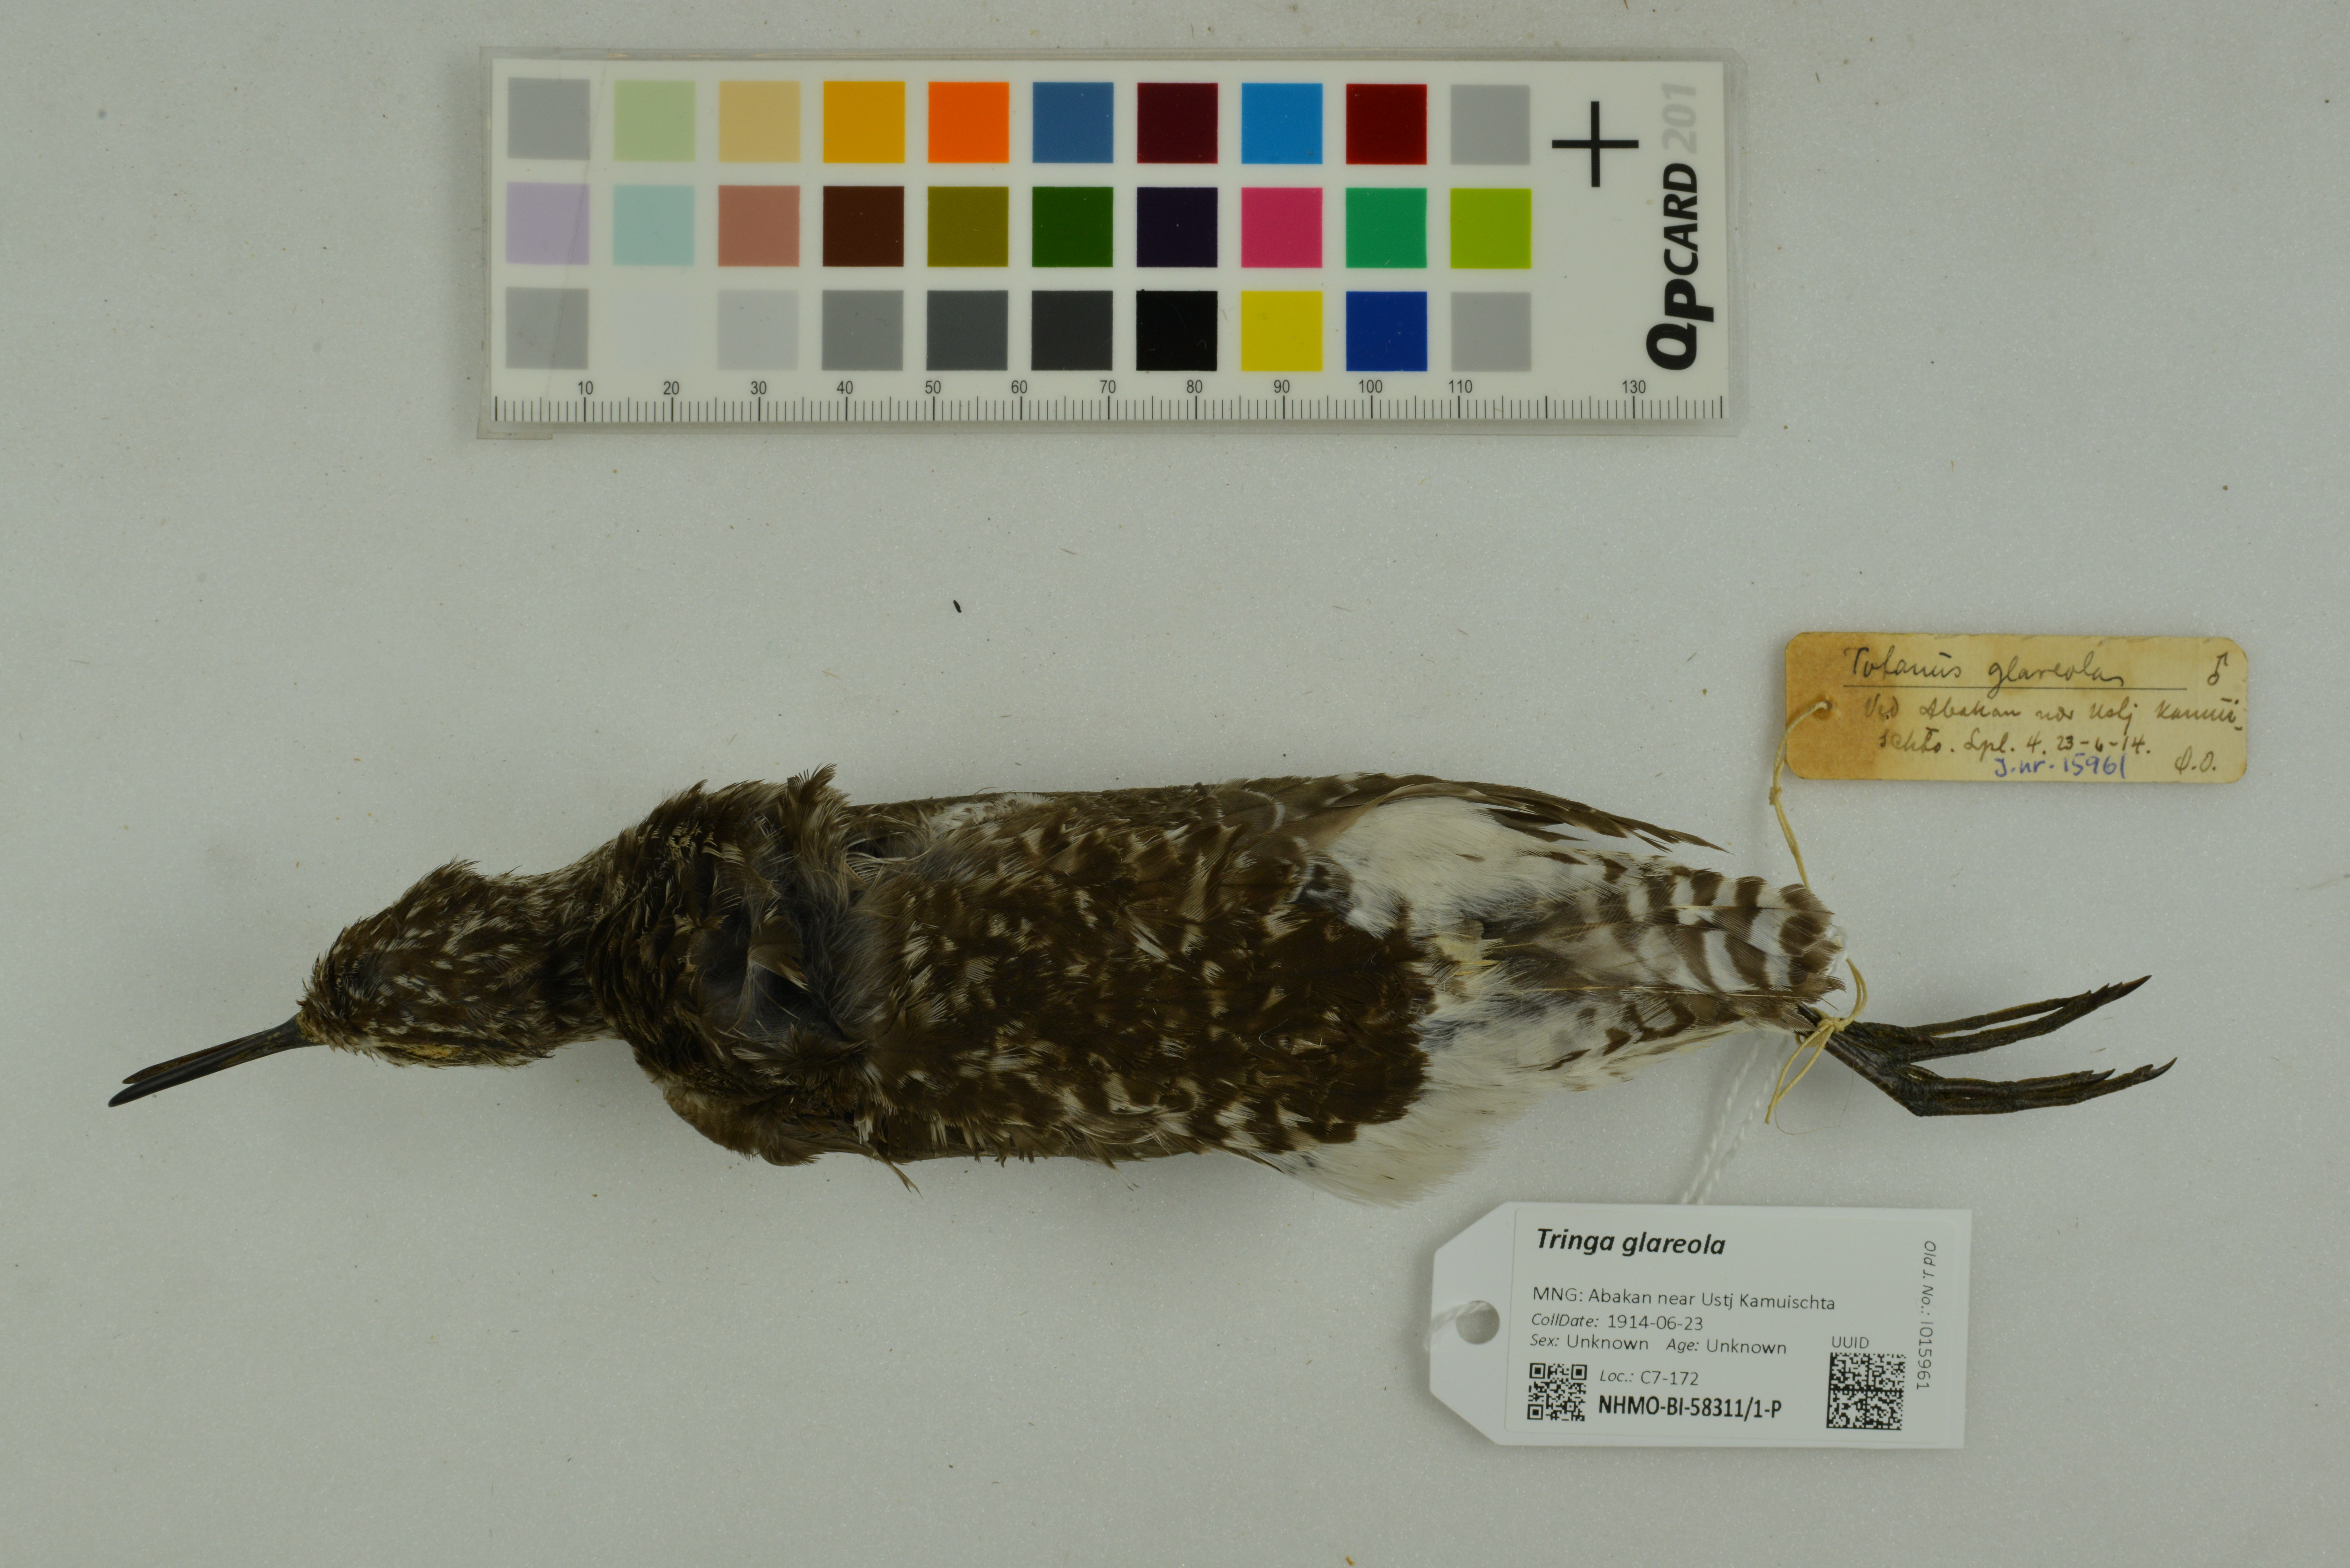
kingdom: Animalia
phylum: Chordata
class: Aves
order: Charadriiformes
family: Scolopacidae
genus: Tringa
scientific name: Tringa glareola
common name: Wood sandpiper
